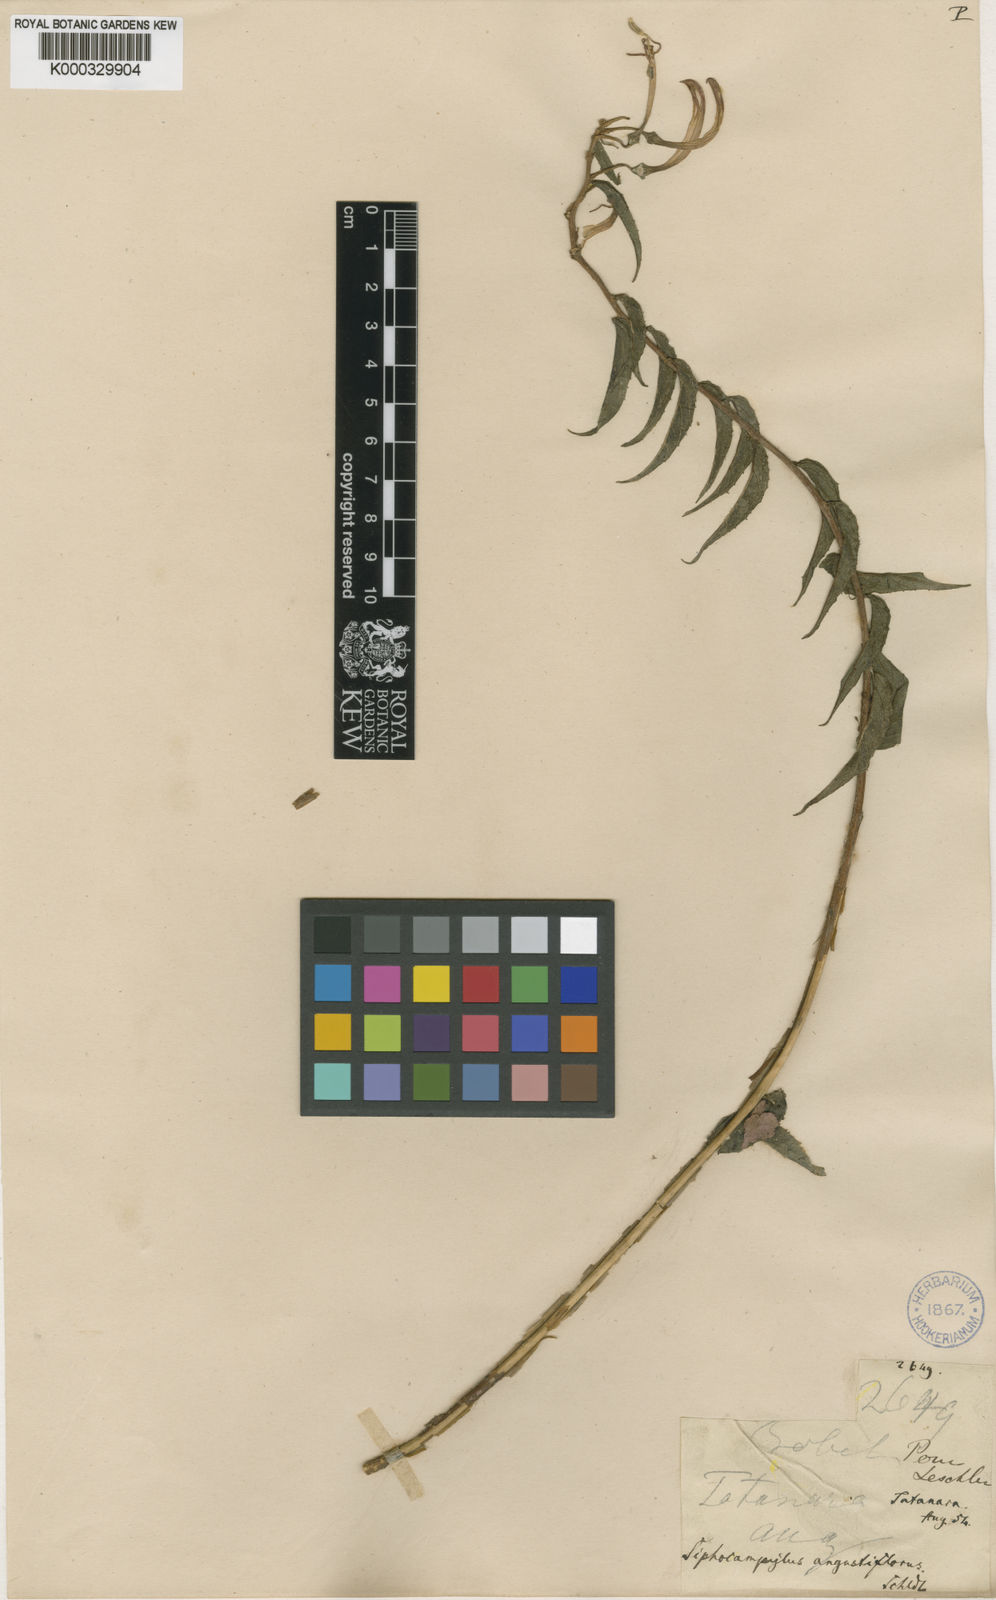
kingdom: Plantae
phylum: Tracheophyta
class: Magnoliopsida
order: Asterales
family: Campanulaceae
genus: Siphocampylus
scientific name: Siphocampylus angustiflorus
